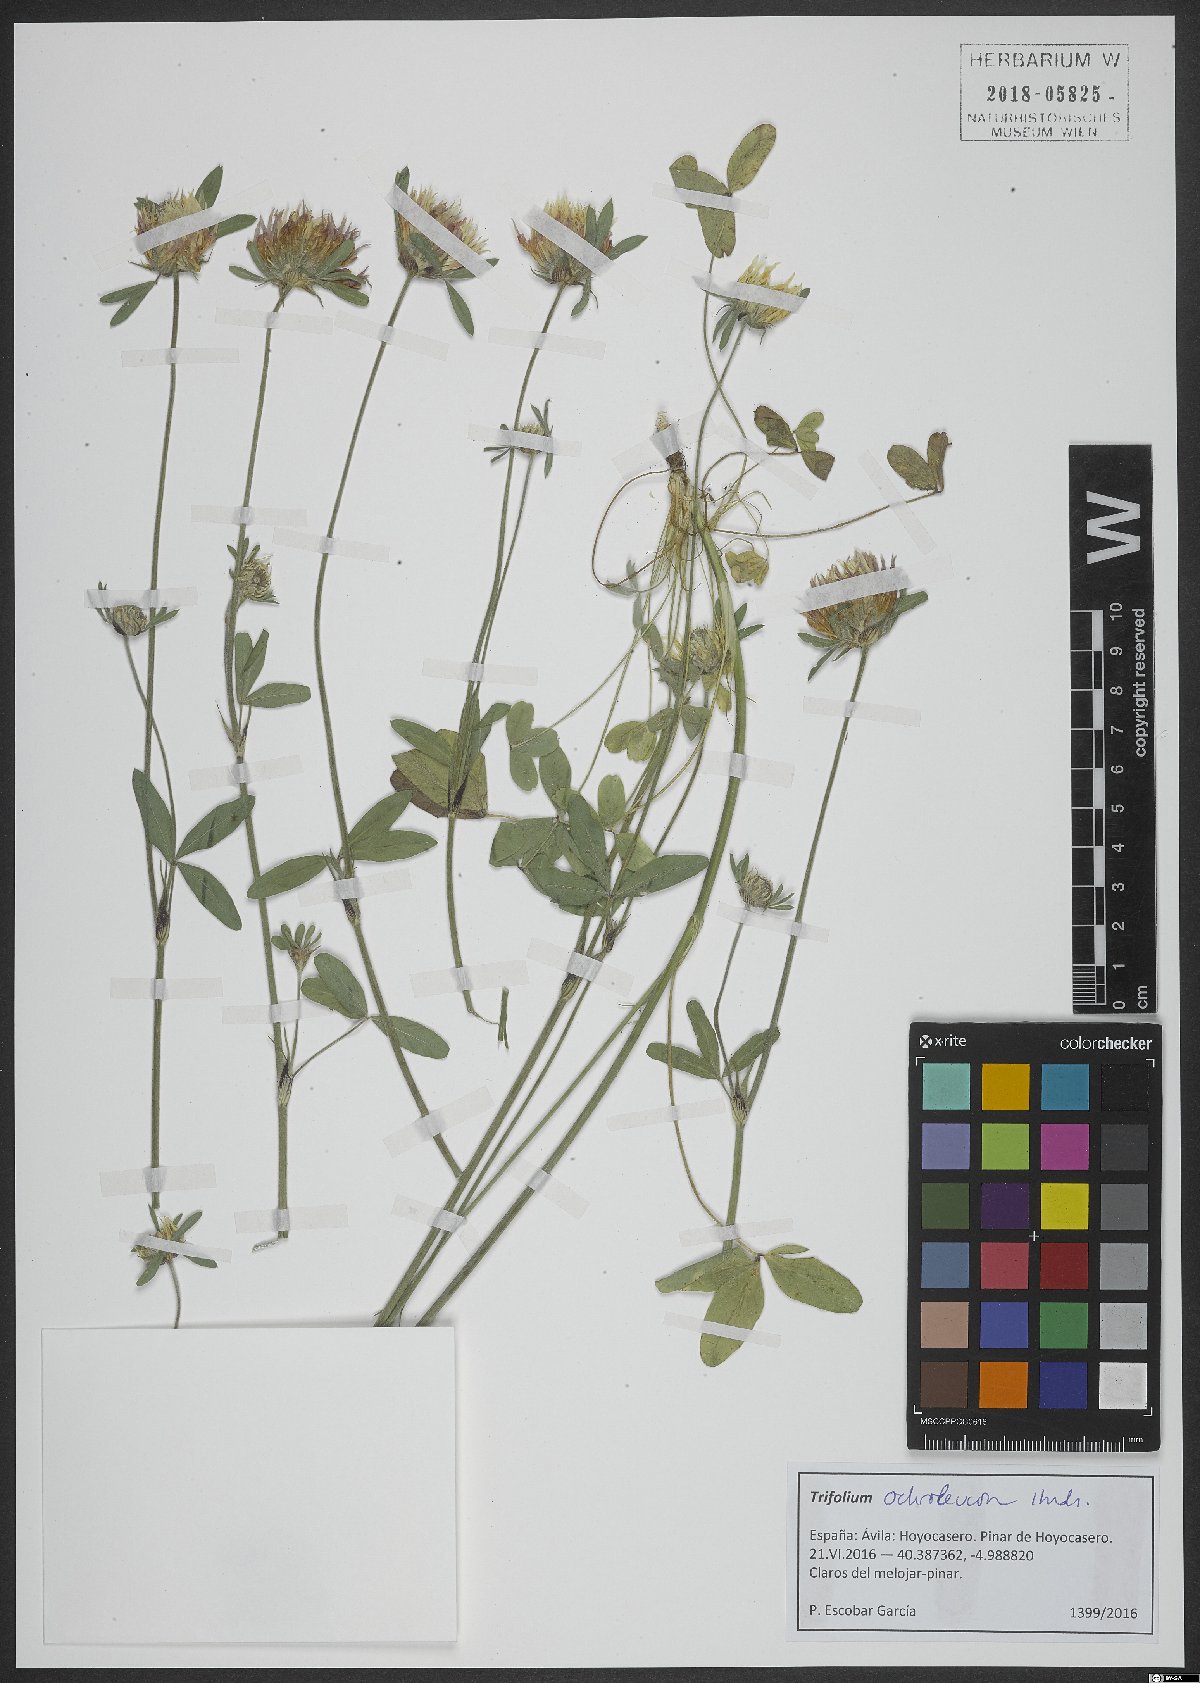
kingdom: Plantae
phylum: Tracheophyta
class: Magnoliopsida
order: Fabales
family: Fabaceae
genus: Trifolium
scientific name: Trifolium ochroleucon
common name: Sulphur clover
